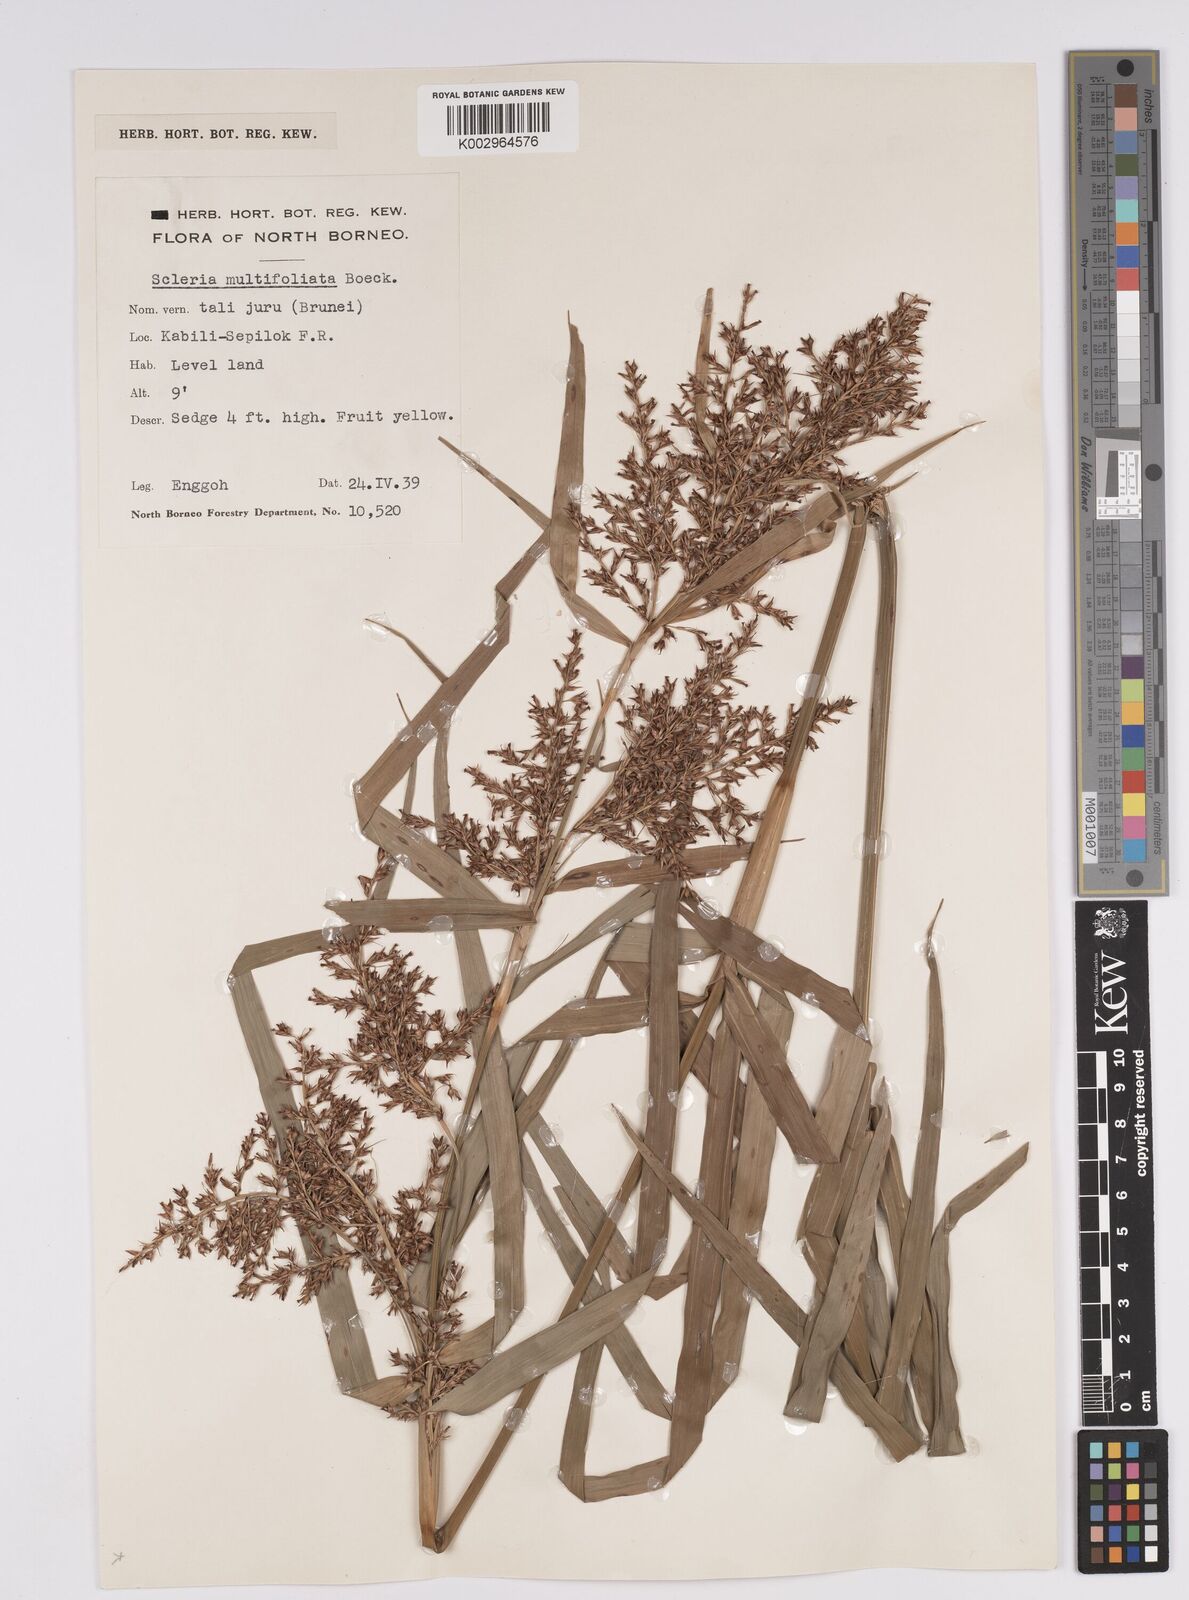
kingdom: Plantae
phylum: Tracheophyta
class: Liliopsida
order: Poales
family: Cyperaceae
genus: Scleria
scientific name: Scleria purpurascens
